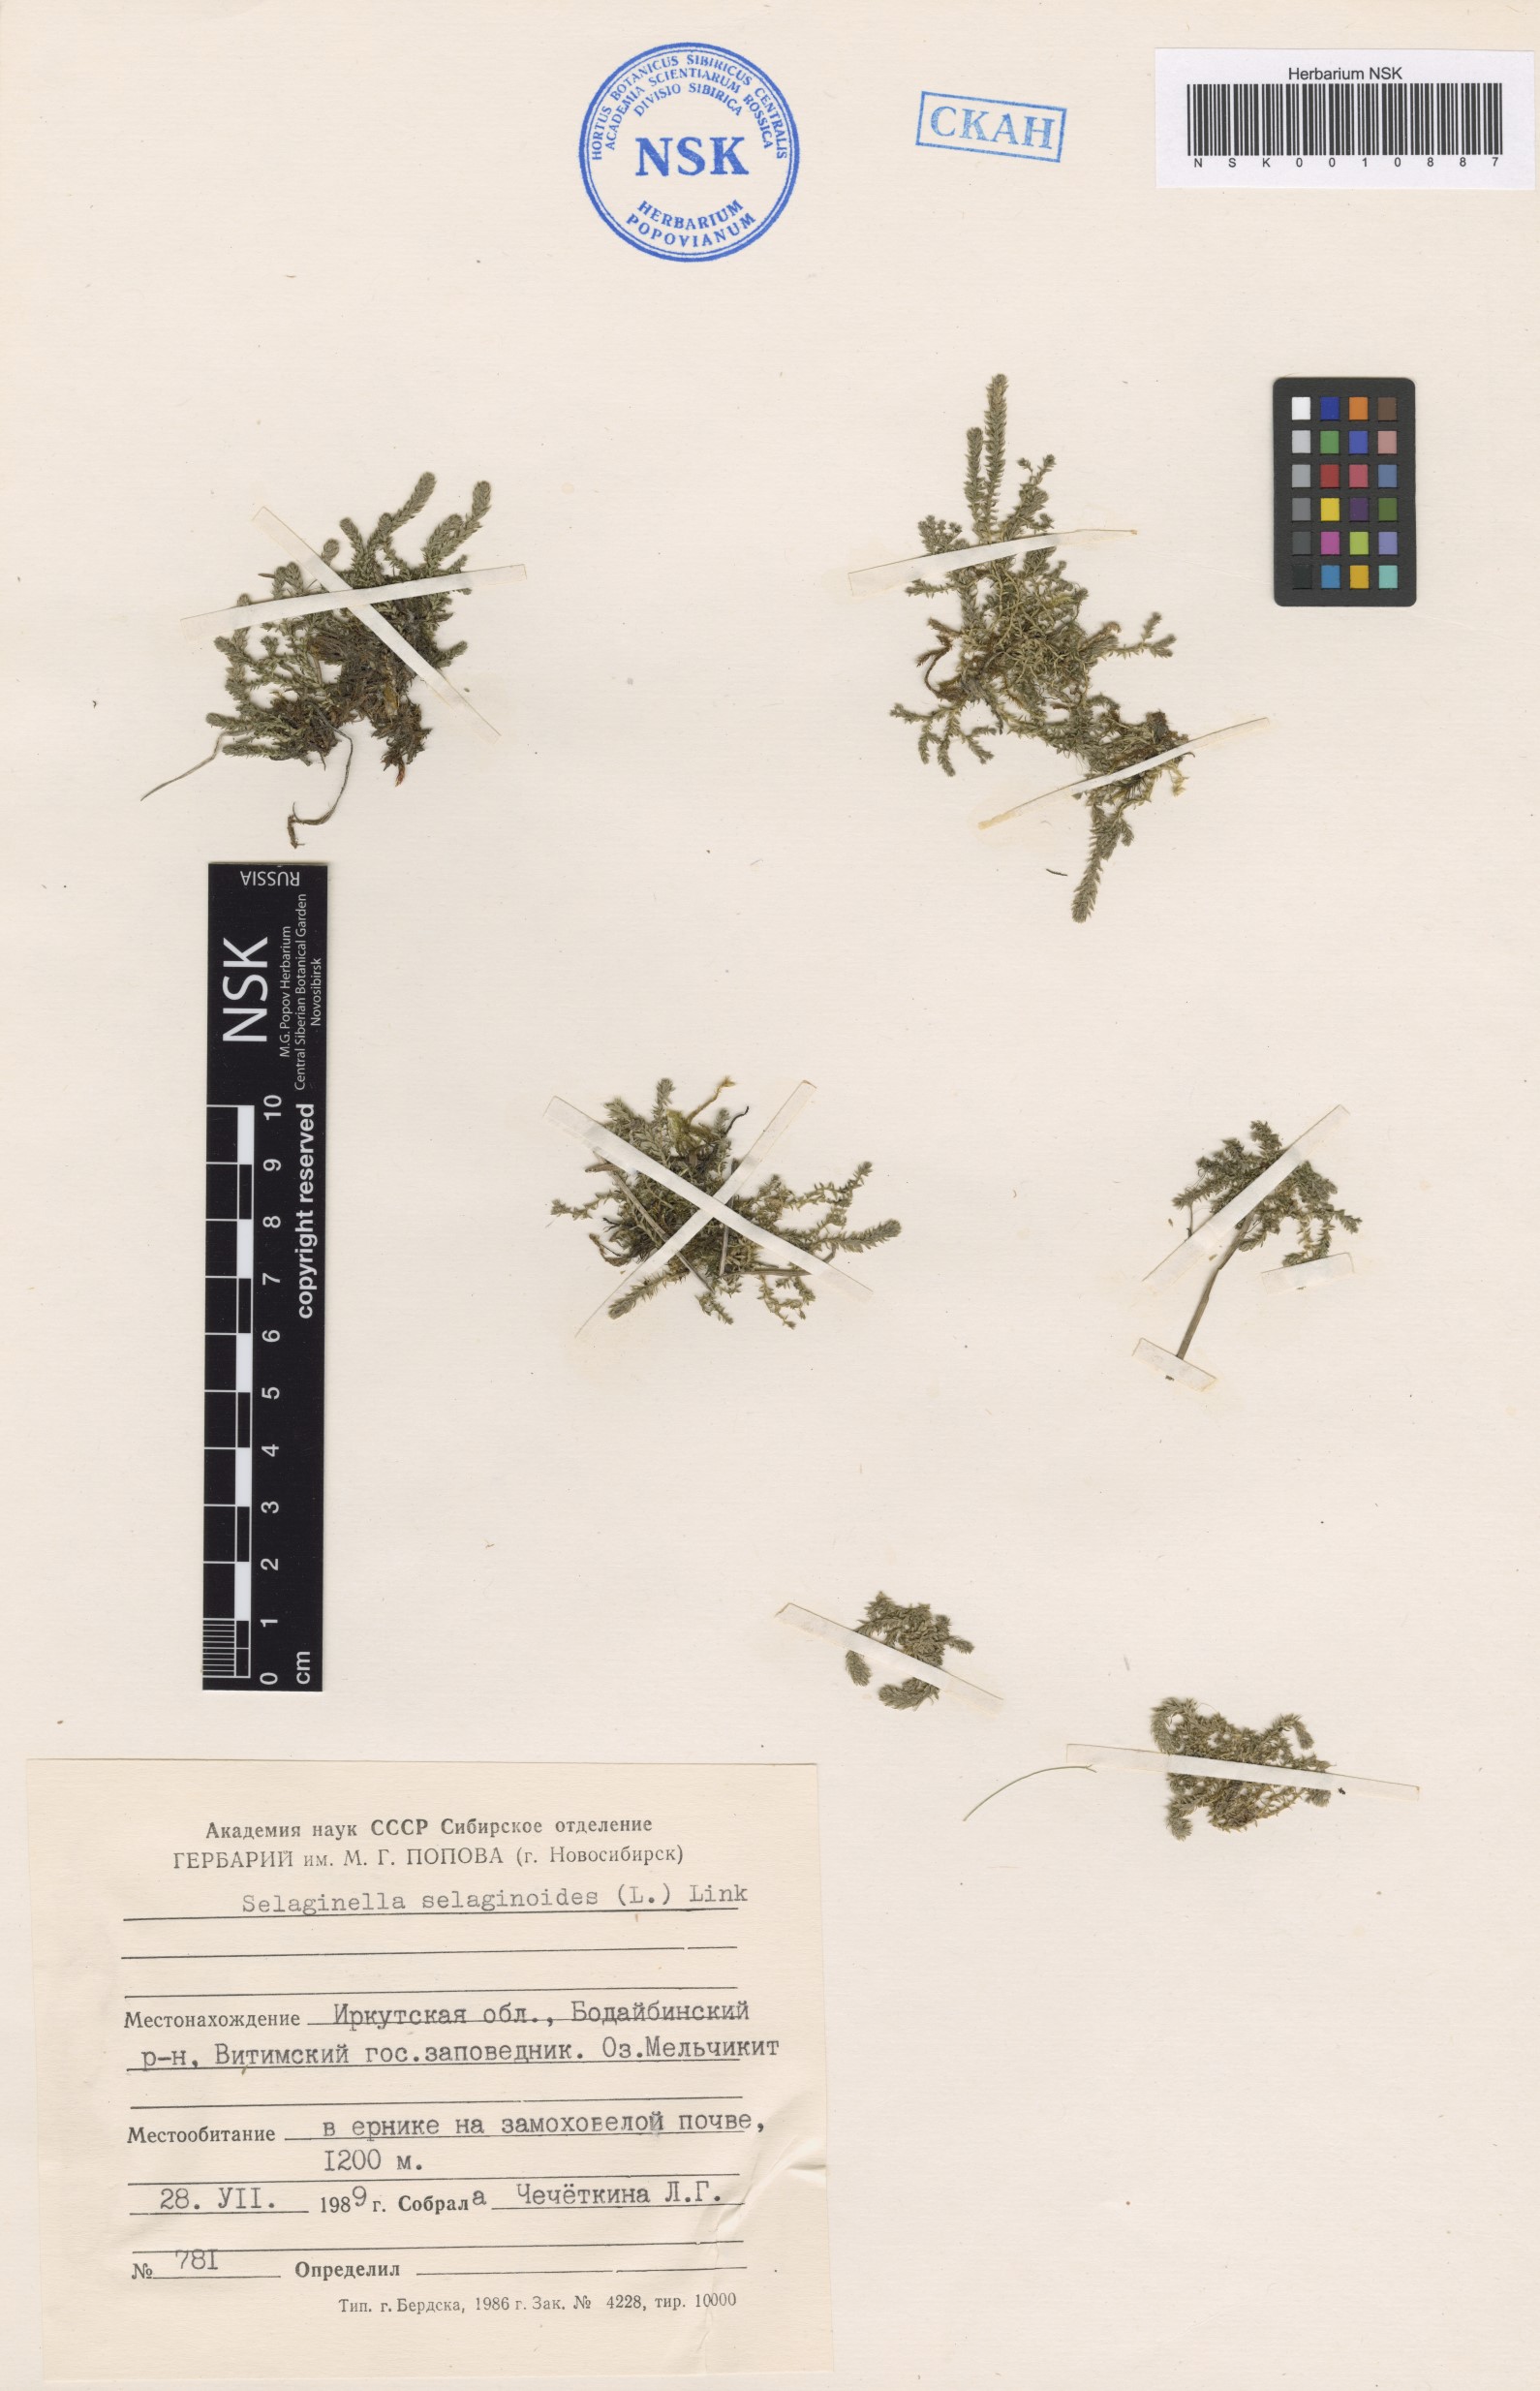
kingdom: Plantae
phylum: Tracheophyta
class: Lycopodiopsida
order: Selaginellales
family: Selaginellaceae
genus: Selaginella
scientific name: Selaginella selaginoides
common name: Prickly mountain-moss
